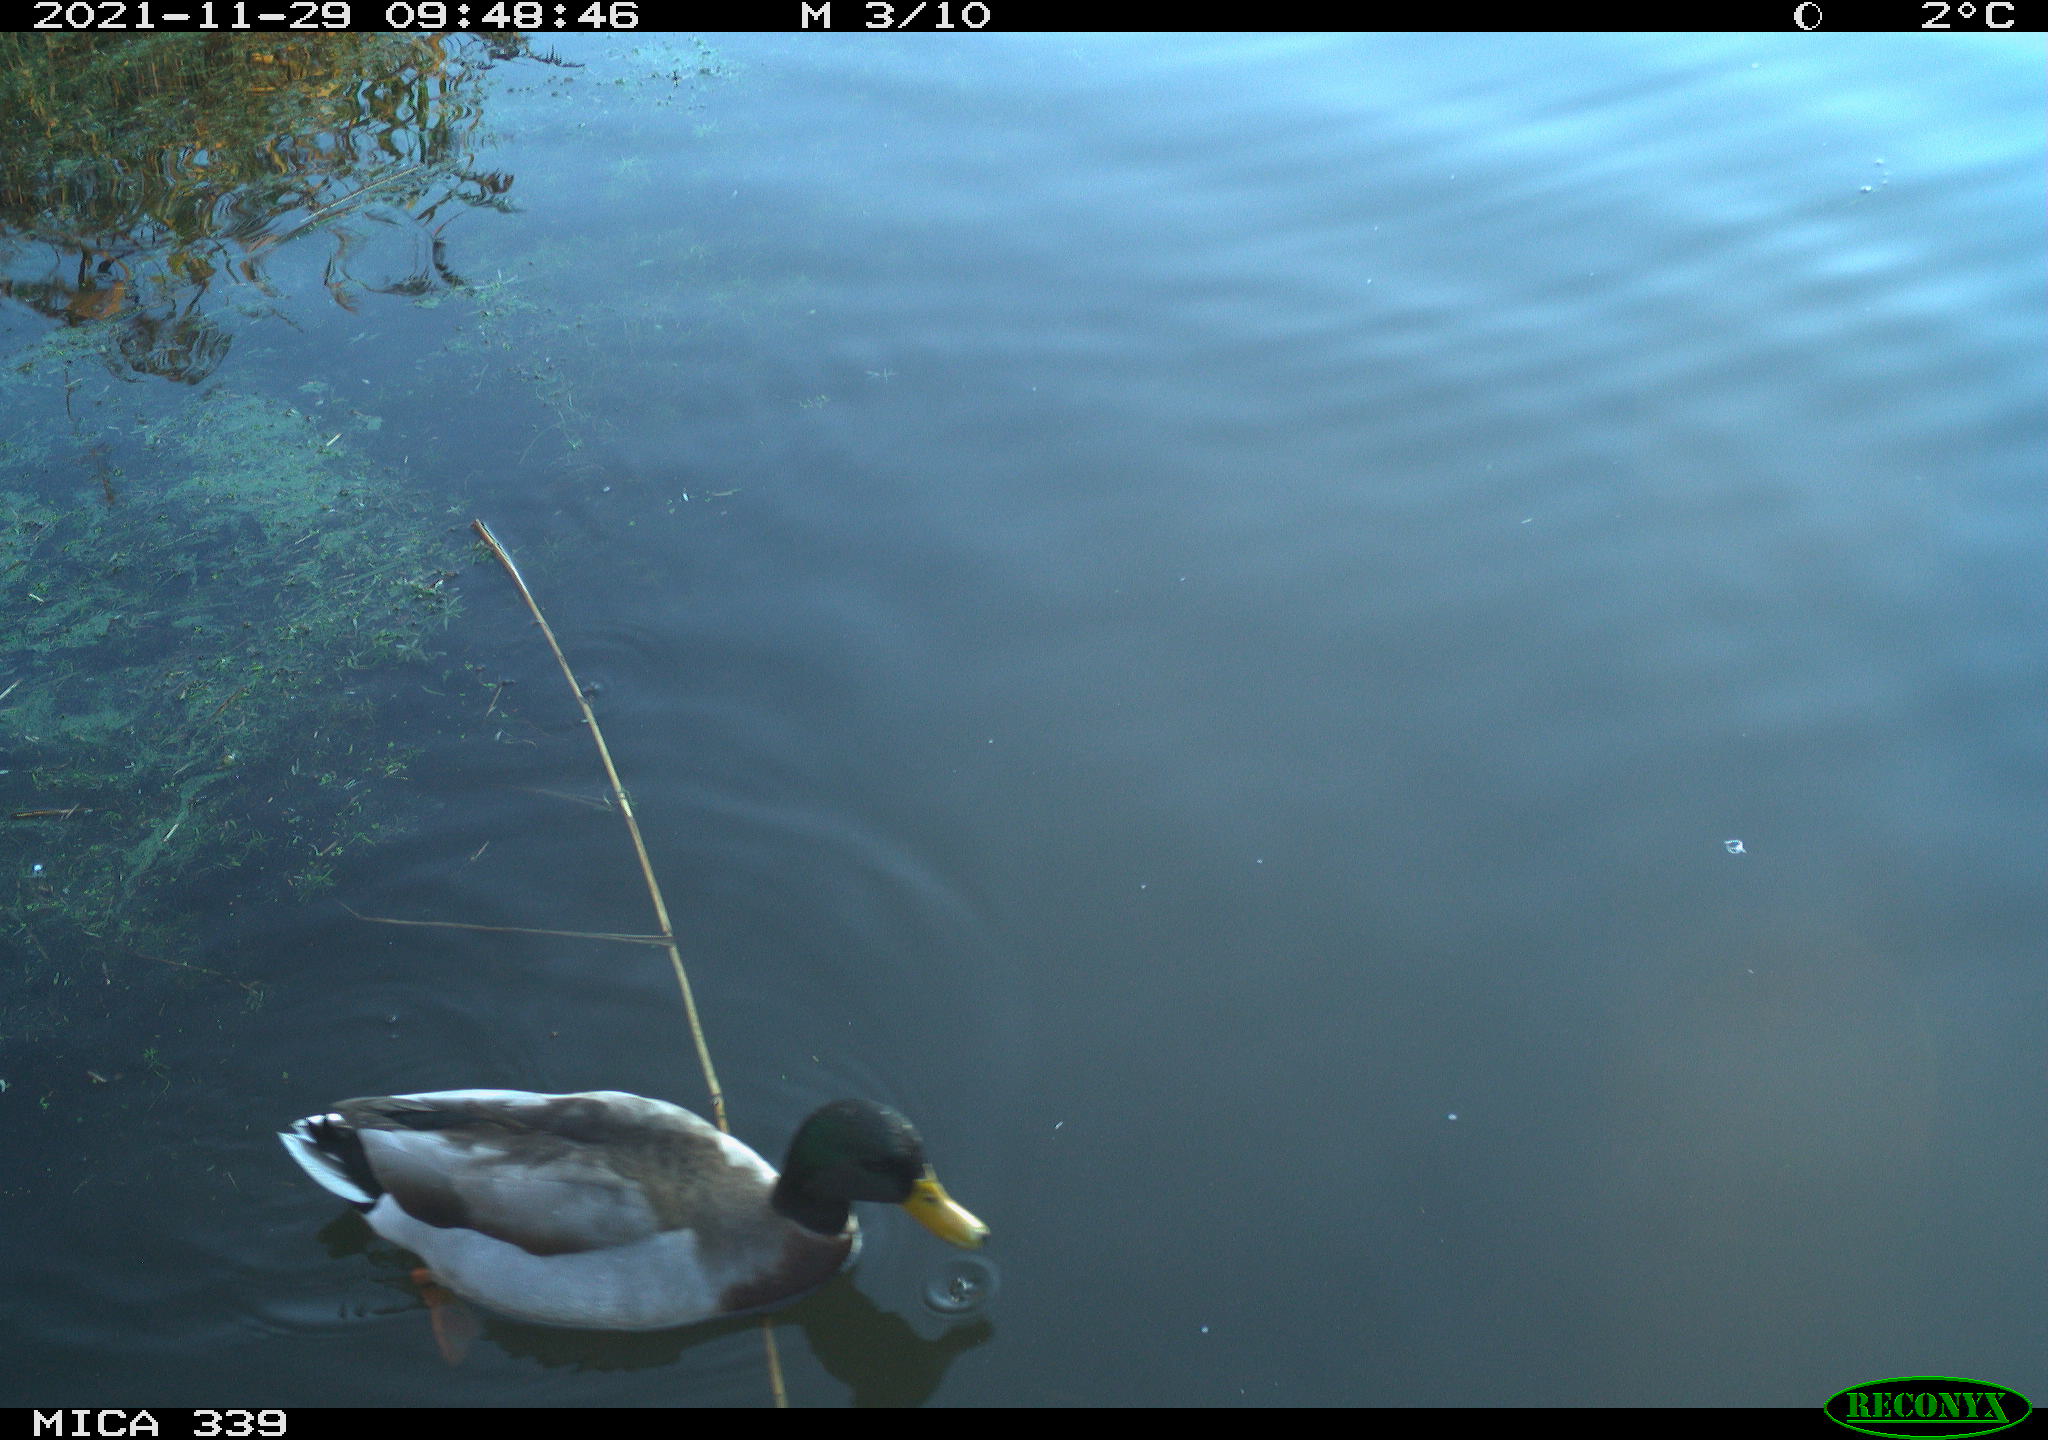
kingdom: Animalia
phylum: Chordata
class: Aves
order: Anseriformes
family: Anatidae
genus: Anas
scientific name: Anas platyrhynchos
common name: Mallard
